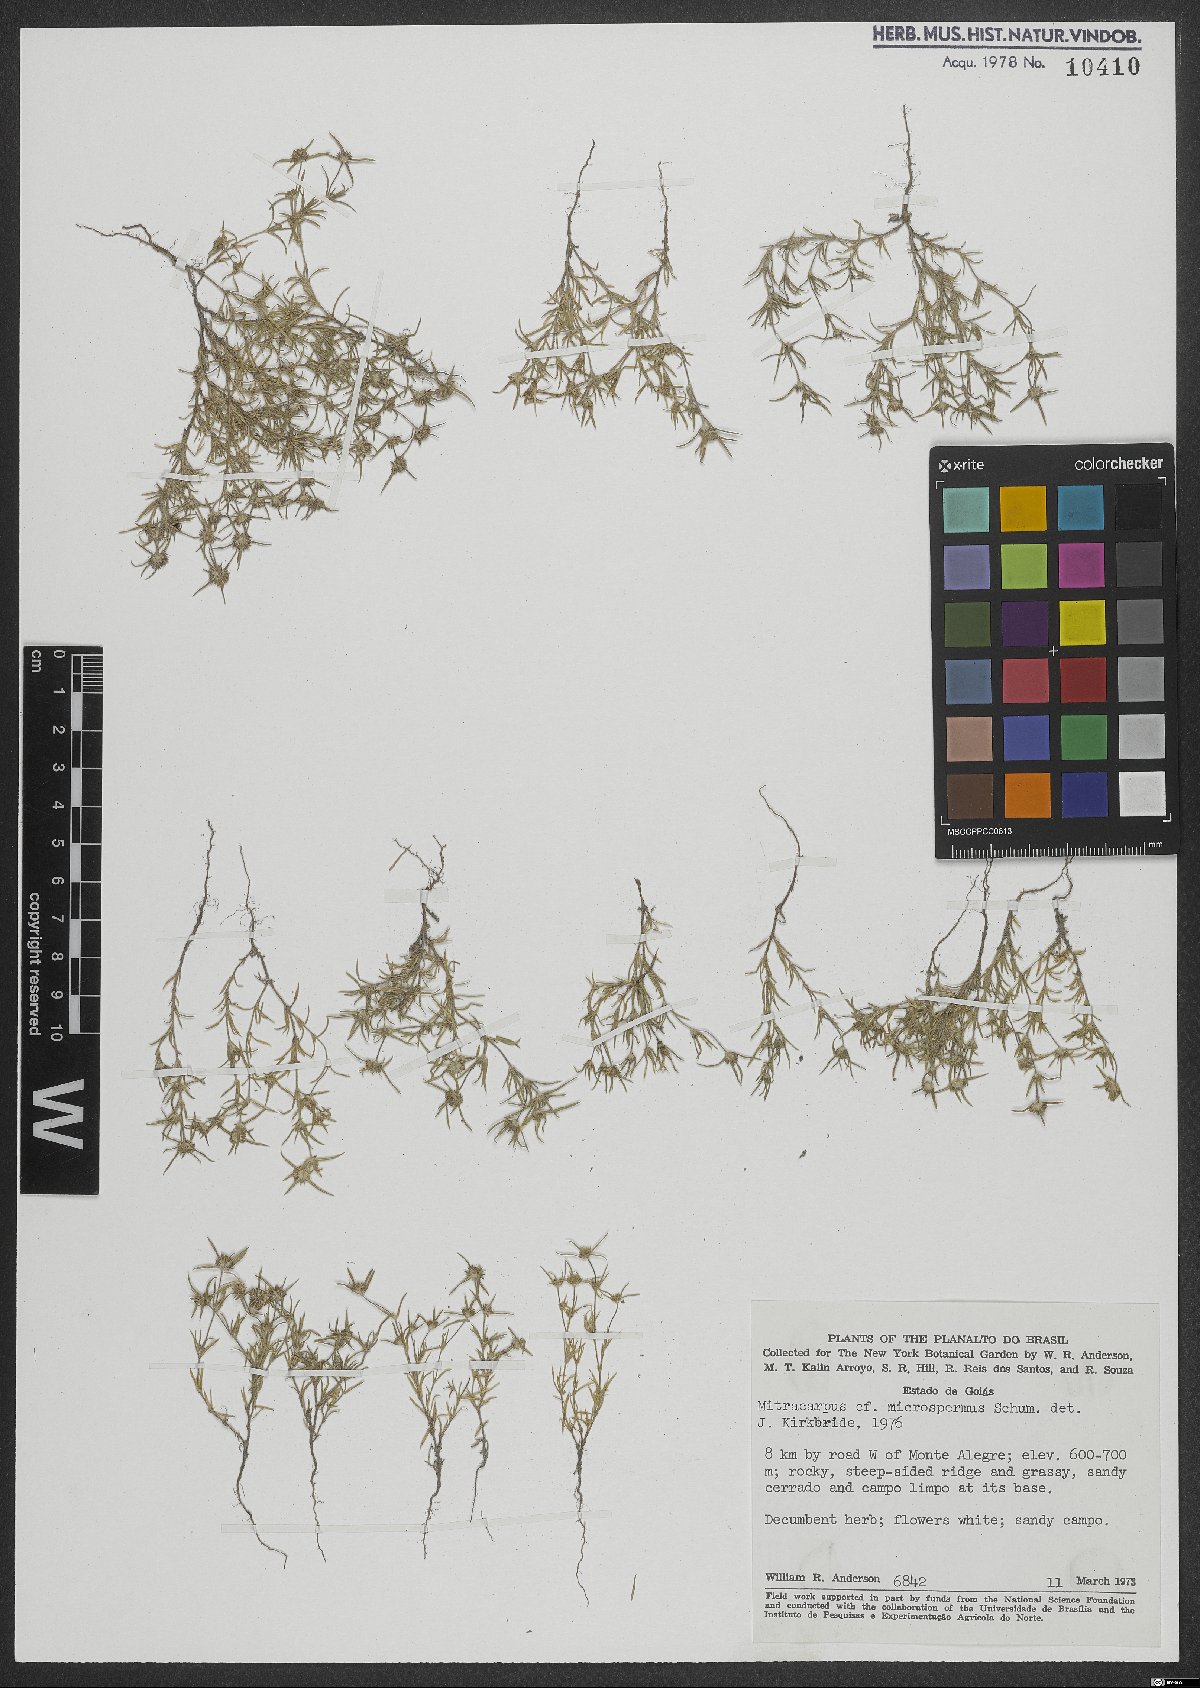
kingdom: Plantae
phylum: Tracheophyta
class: Magnoliopsida
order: Gentianales
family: Rubiaceae
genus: Mitracarpus
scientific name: Mitracarpus microspermus
